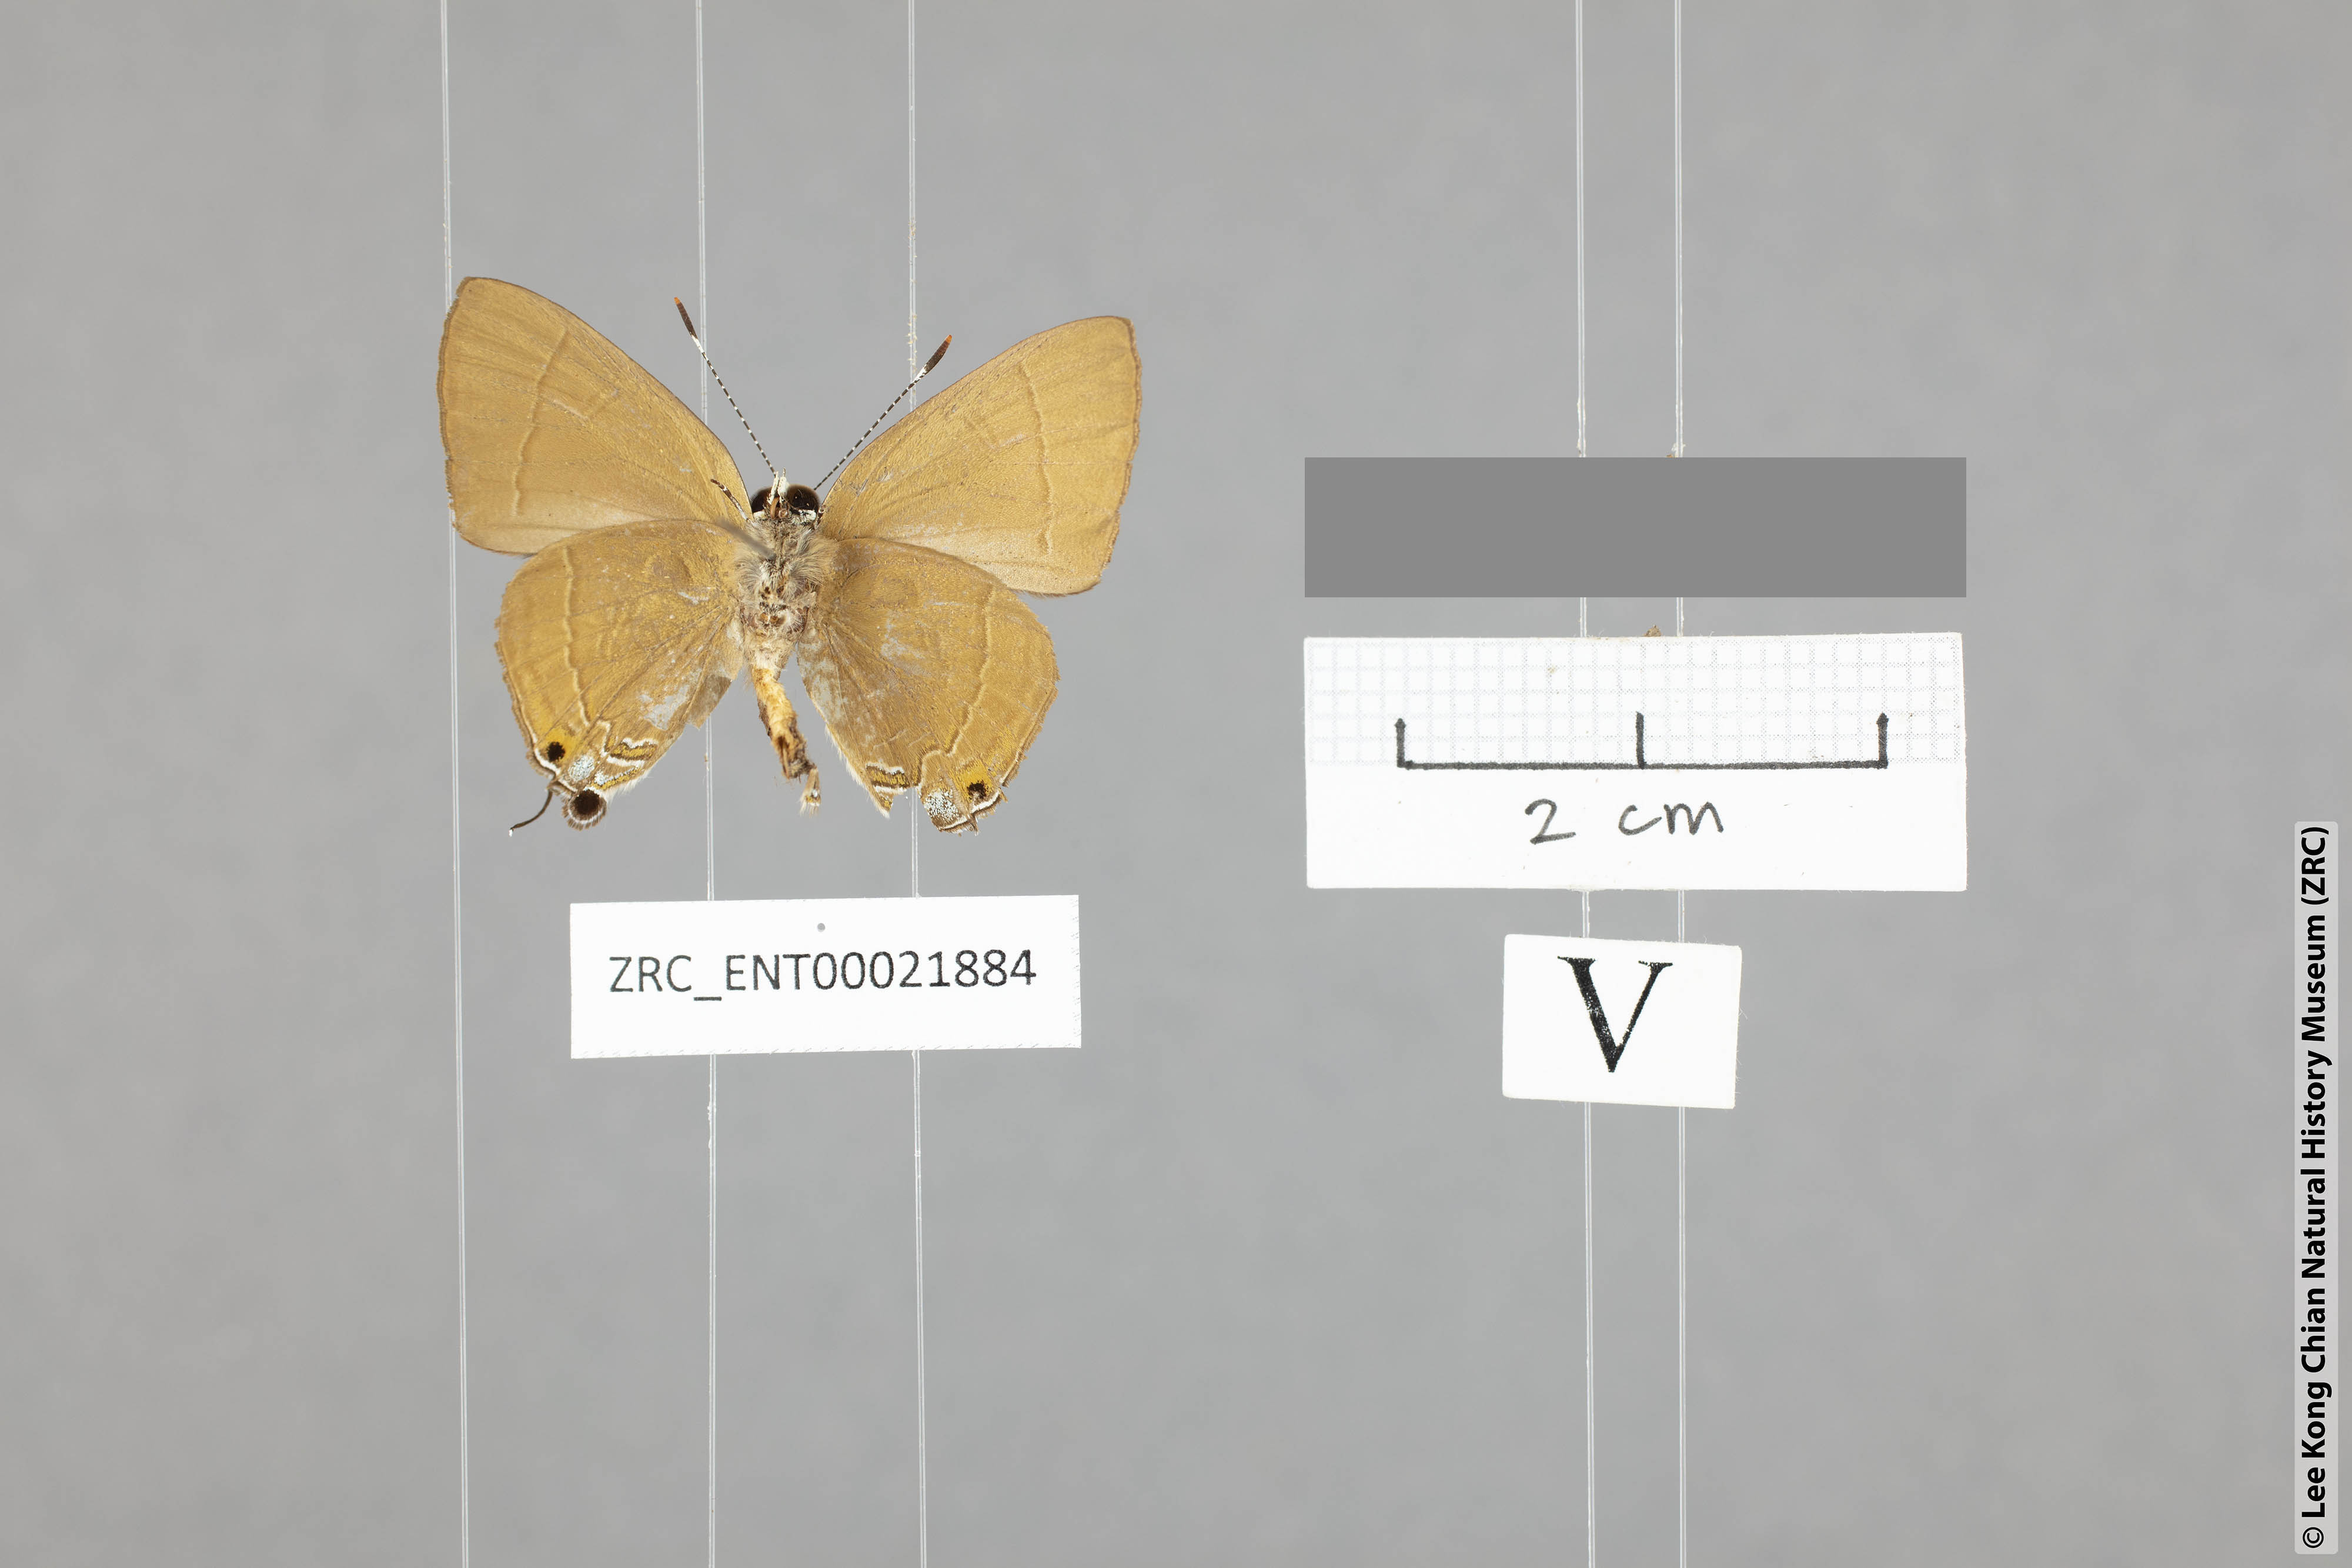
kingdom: Animalia
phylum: Arthropoda
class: Insecta
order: Lepidoptera
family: Lycaenidae
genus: Rapala
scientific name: Rapala rhodopis
